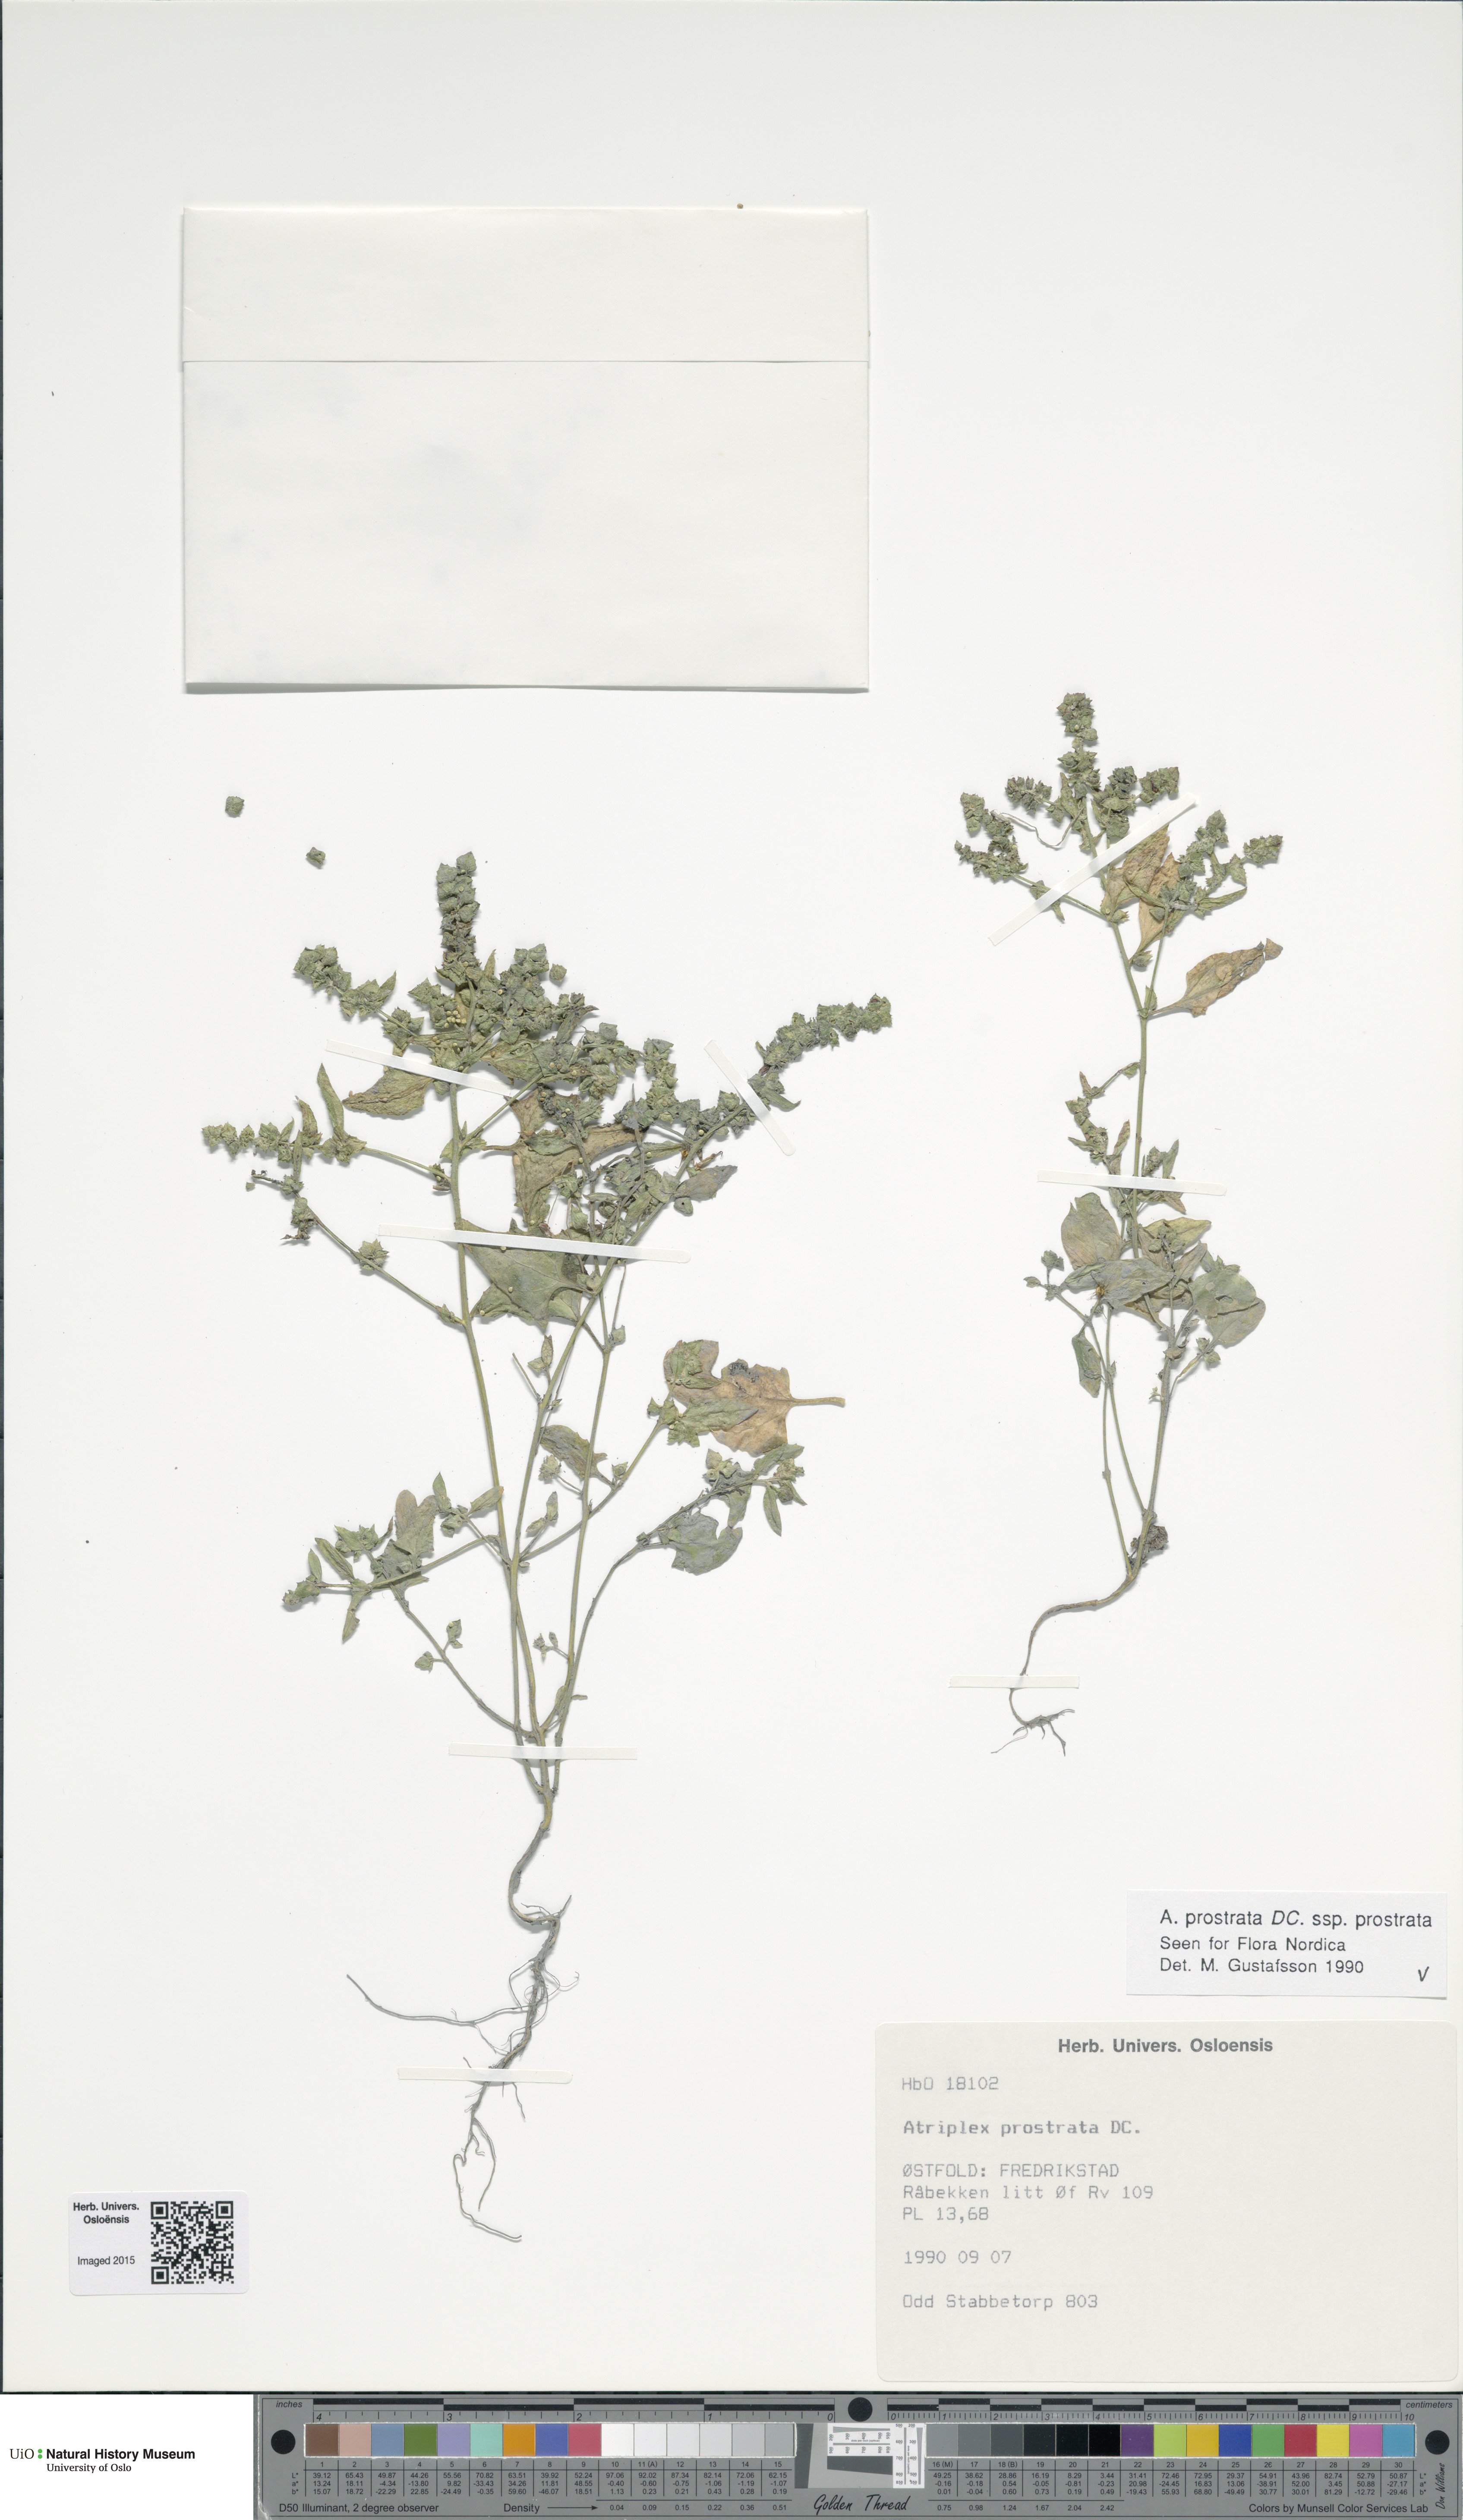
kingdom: Plantae
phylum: Tracheophyta
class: Magnoliopsida
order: Caryophyllales
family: Amaranthaceae
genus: Atriplex
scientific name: Atriplex prostrata
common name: Spear-leaved orache
